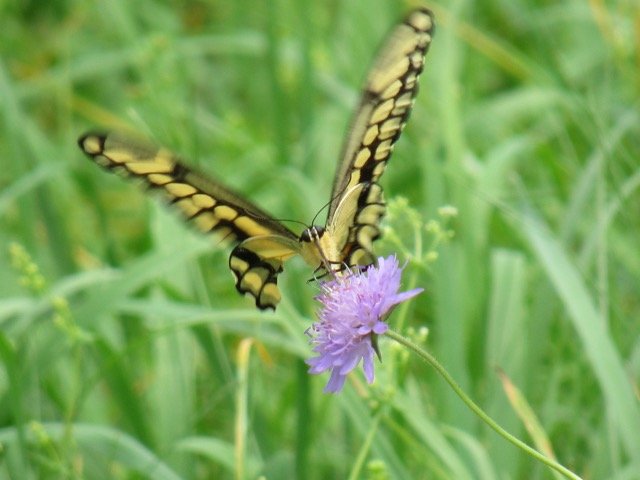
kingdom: Animalia
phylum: Arthropoda
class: Insecta
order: Lepidoptera
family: Papilionidae
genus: Papilio
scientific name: Papilio cresphontes
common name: Eastern Giant Swallowtail
